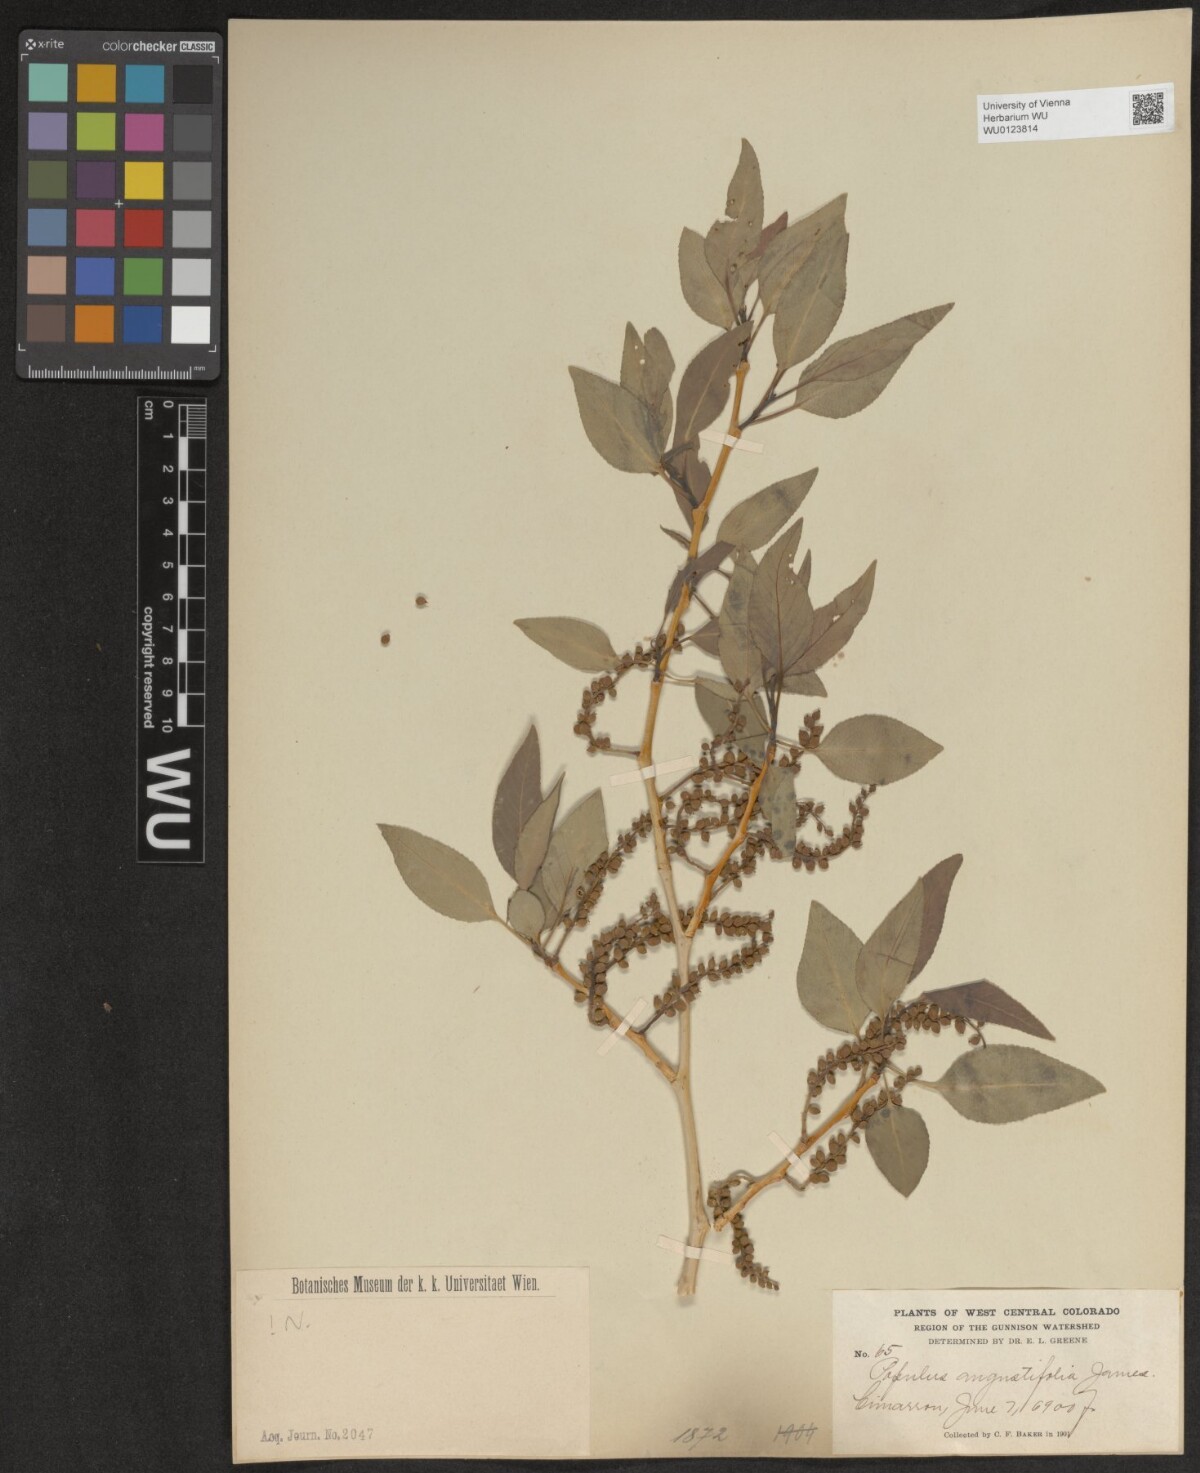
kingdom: Plantae
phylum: Tracheophyta
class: Magnoliopsida
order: Malpighiales
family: Salicaceae
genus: Populus
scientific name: Populus angustifolia
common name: Willow cottonwood
